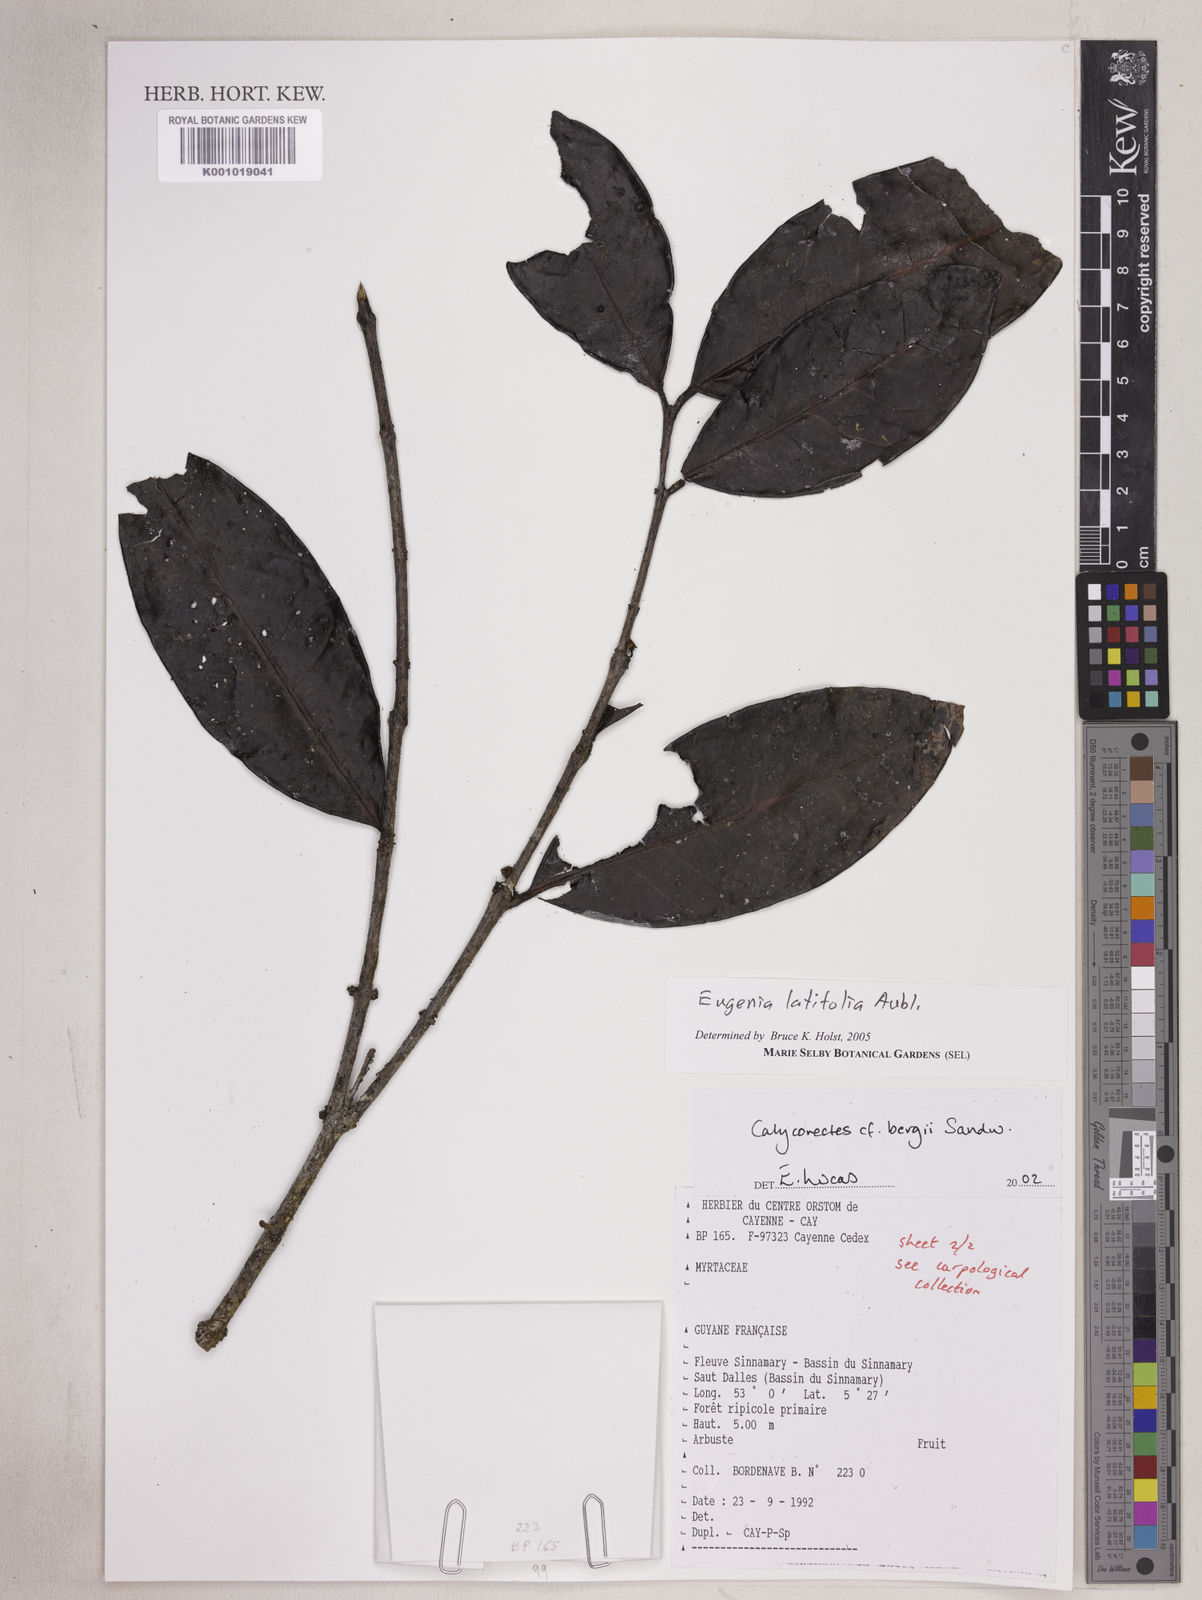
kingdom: Plantae
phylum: Tracheophyta
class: Magnoliopsida
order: Myrtales
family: Myrtaceae
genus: Eugenia
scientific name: Eugenia latifolia
